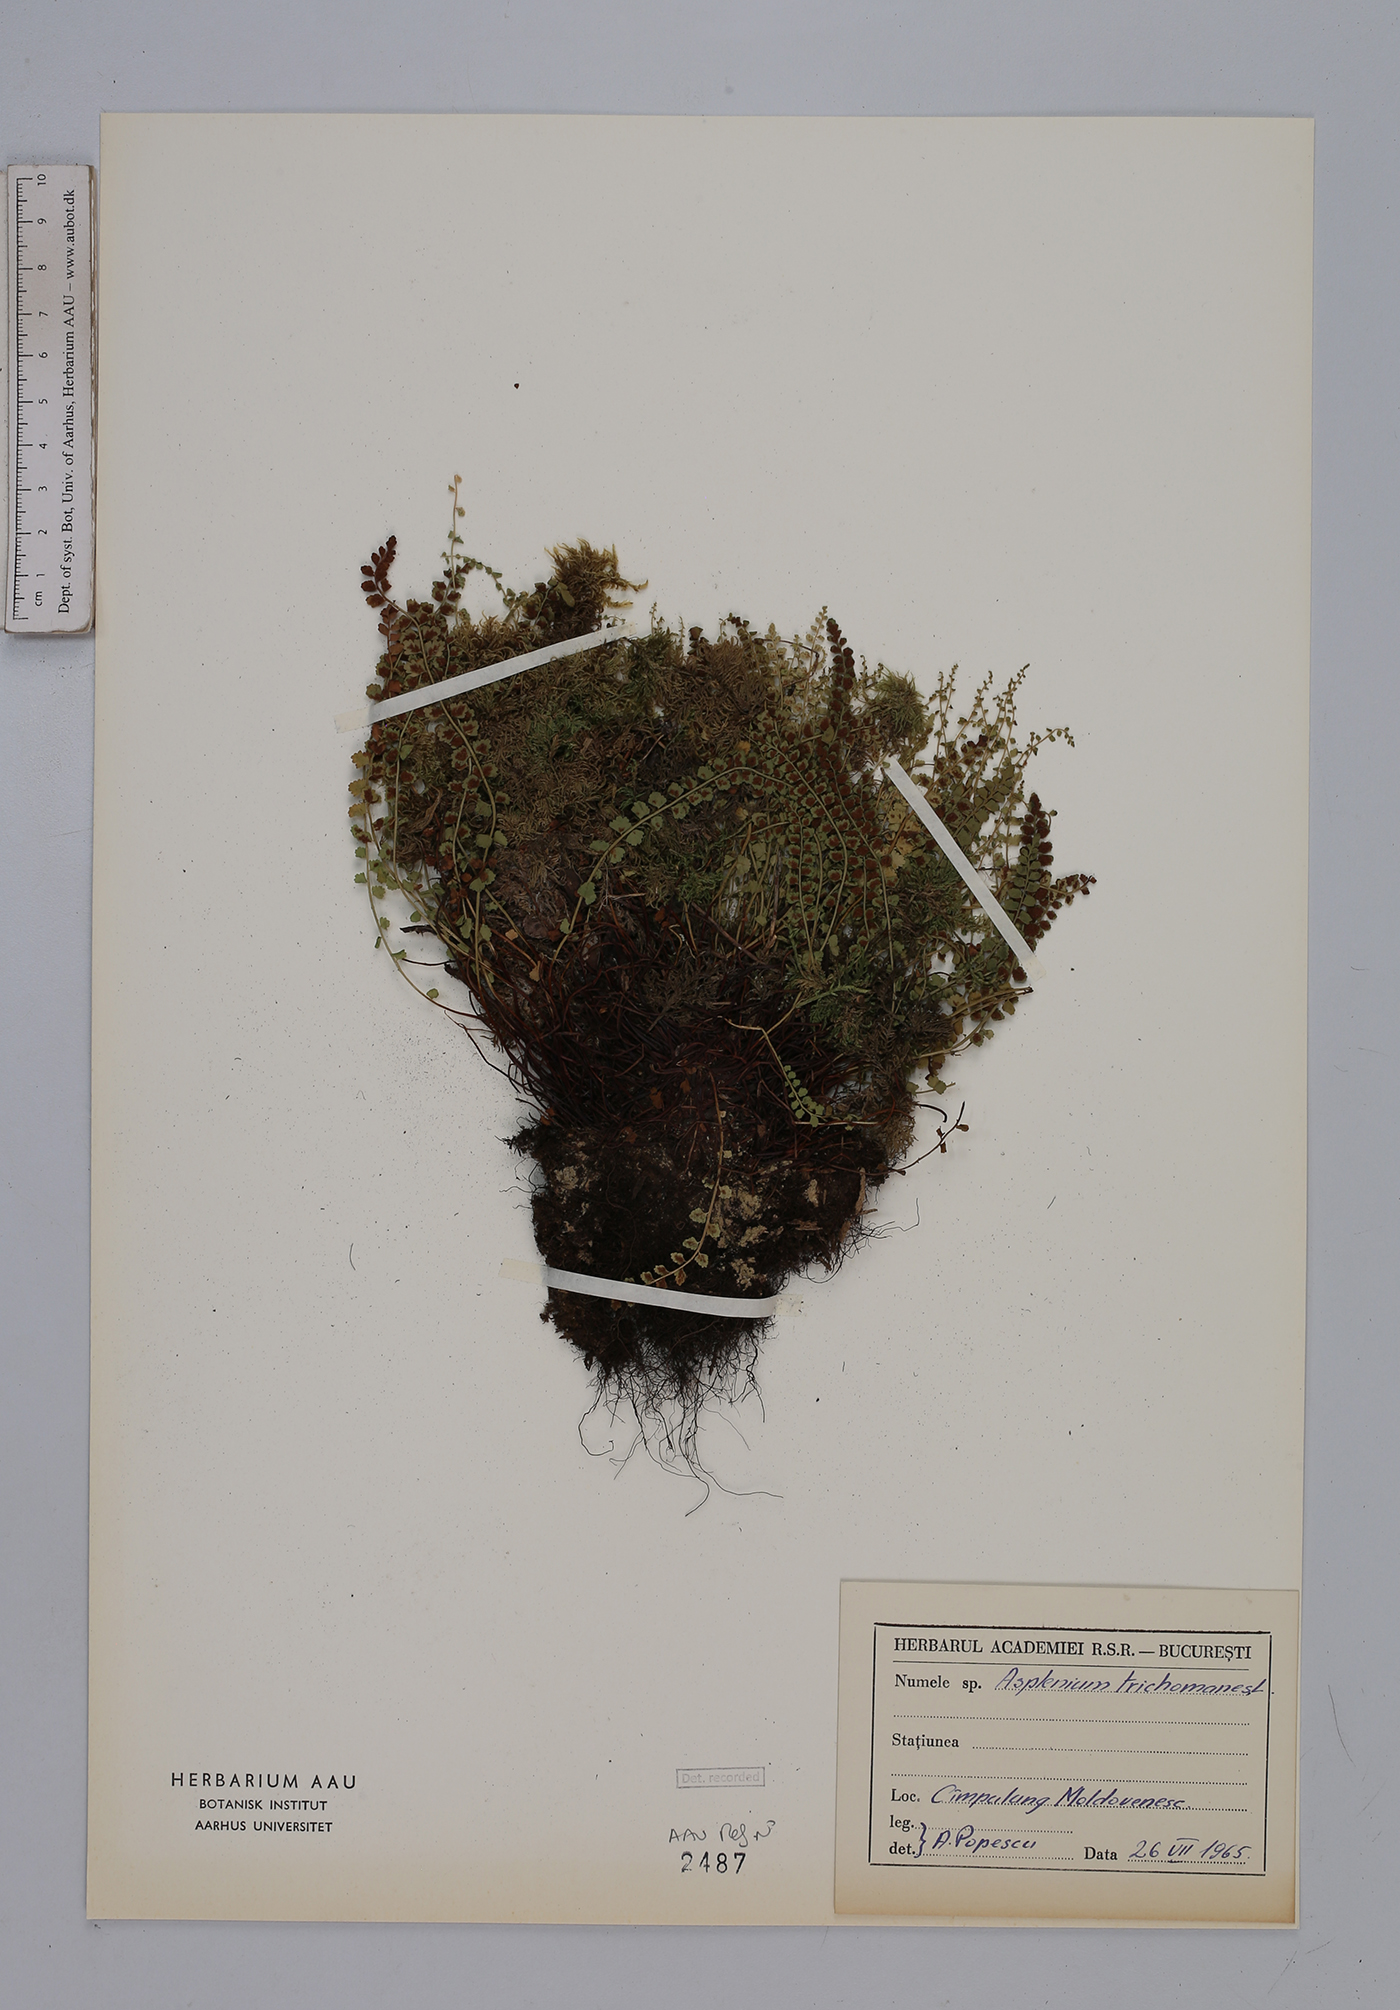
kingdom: Plantae
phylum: Tracheophyta
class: Polypodiopsida
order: Polypodiales
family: Aspleniaceae
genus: Asplenium
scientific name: Asplenium viride
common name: Green spleenwort
